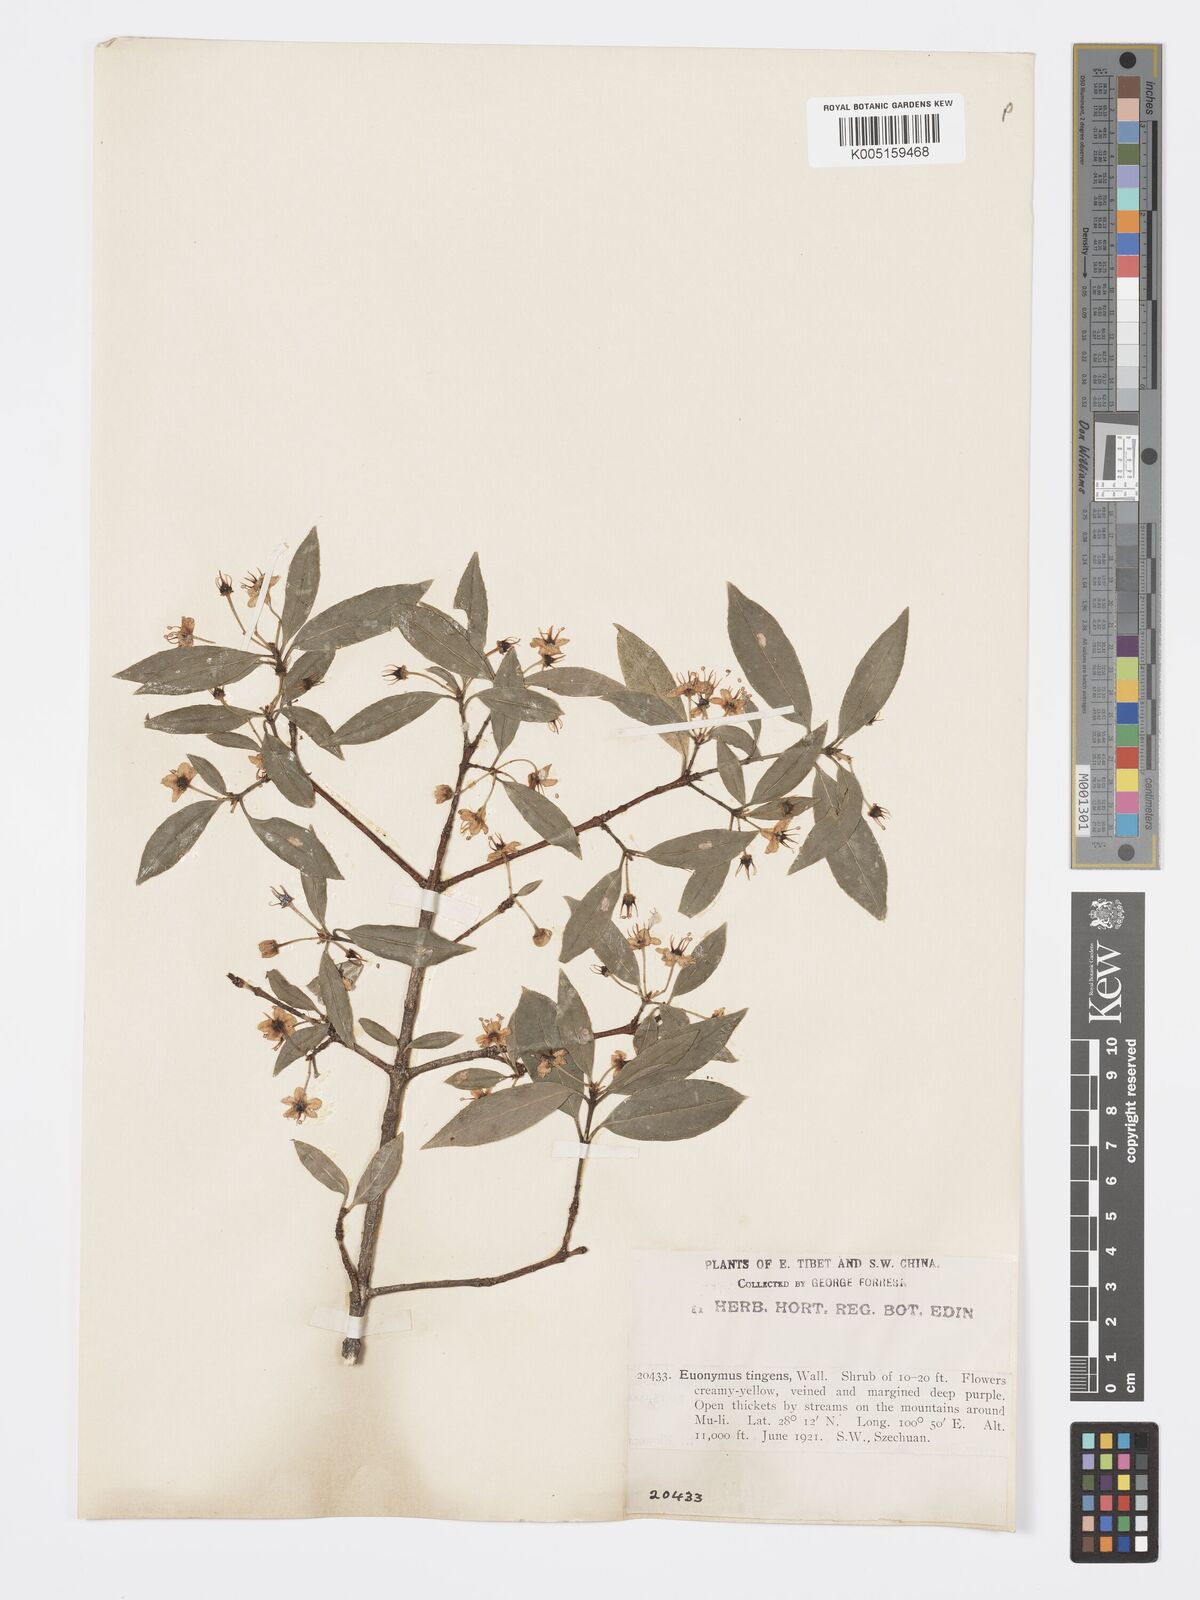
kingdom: Plantae
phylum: Tracheophyta
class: Magnoliopsida
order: Celastrales
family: Celastraceae
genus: Euonymus
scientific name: Euonymus tingens
